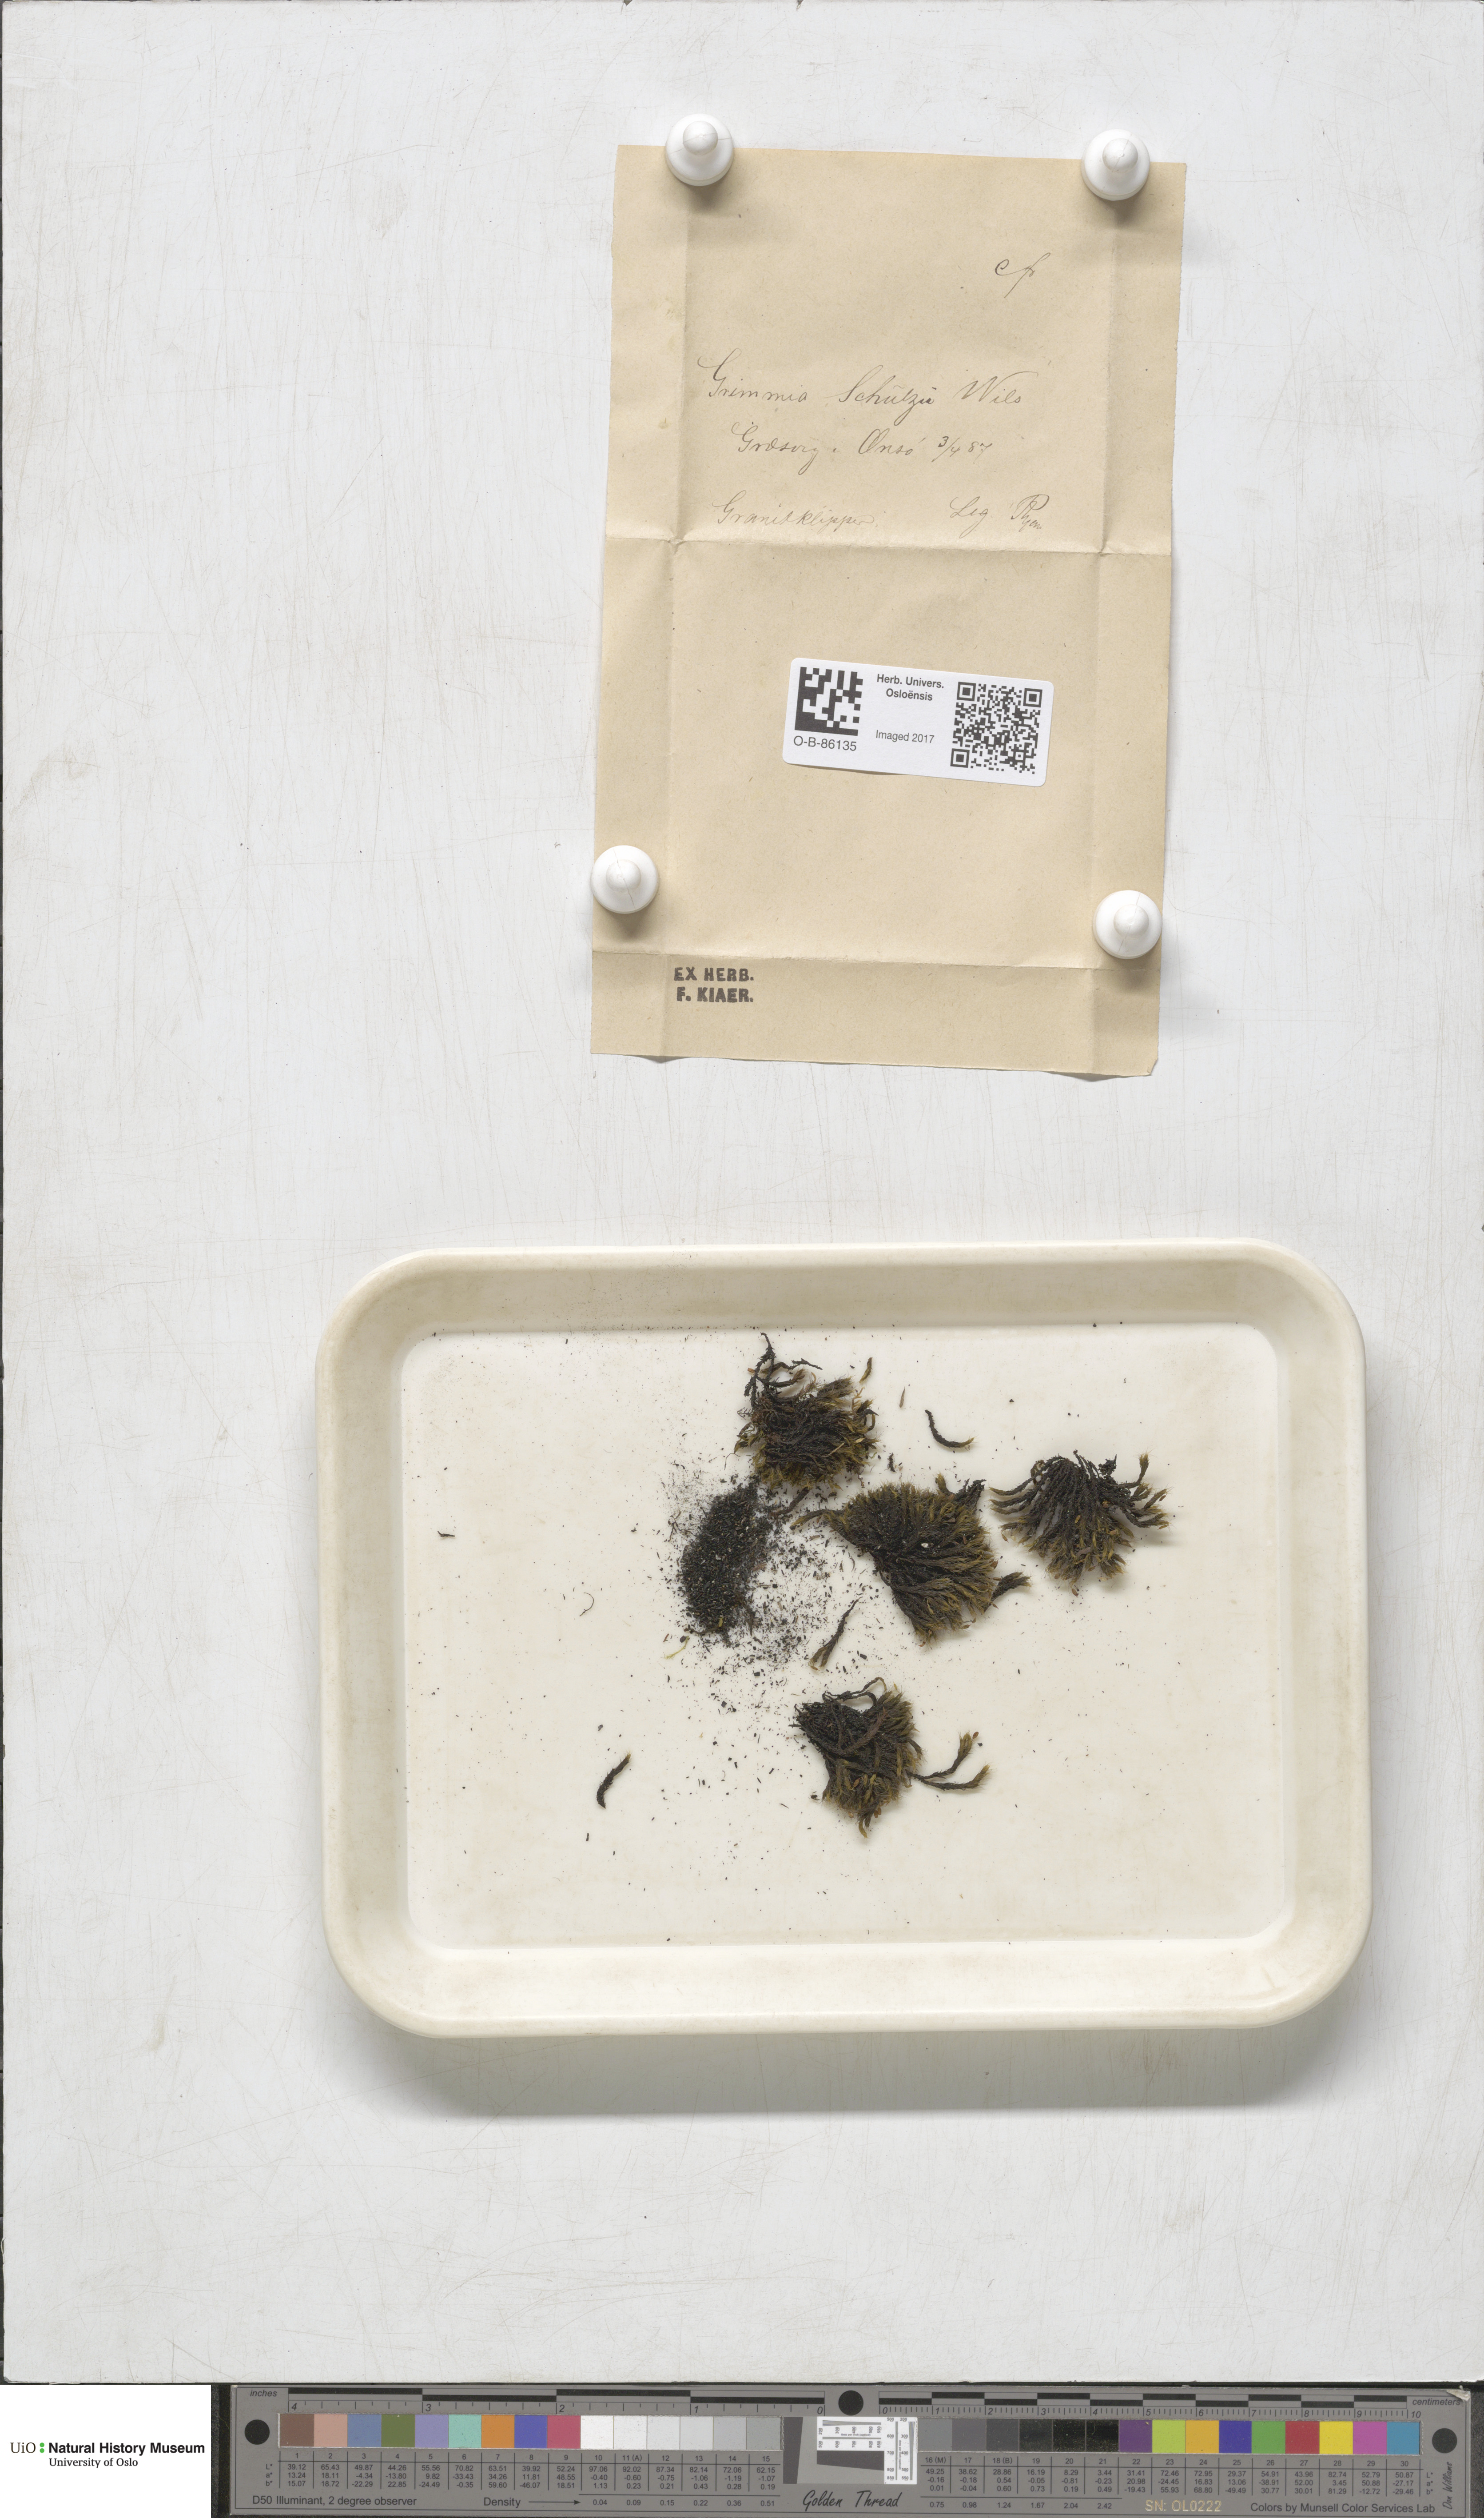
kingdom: Plantae
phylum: Bryophyta
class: Bryopsida
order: Grimmiales
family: Grimmiaceae
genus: Grimmia
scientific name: Grimmia decipiens
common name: Great grimmia
